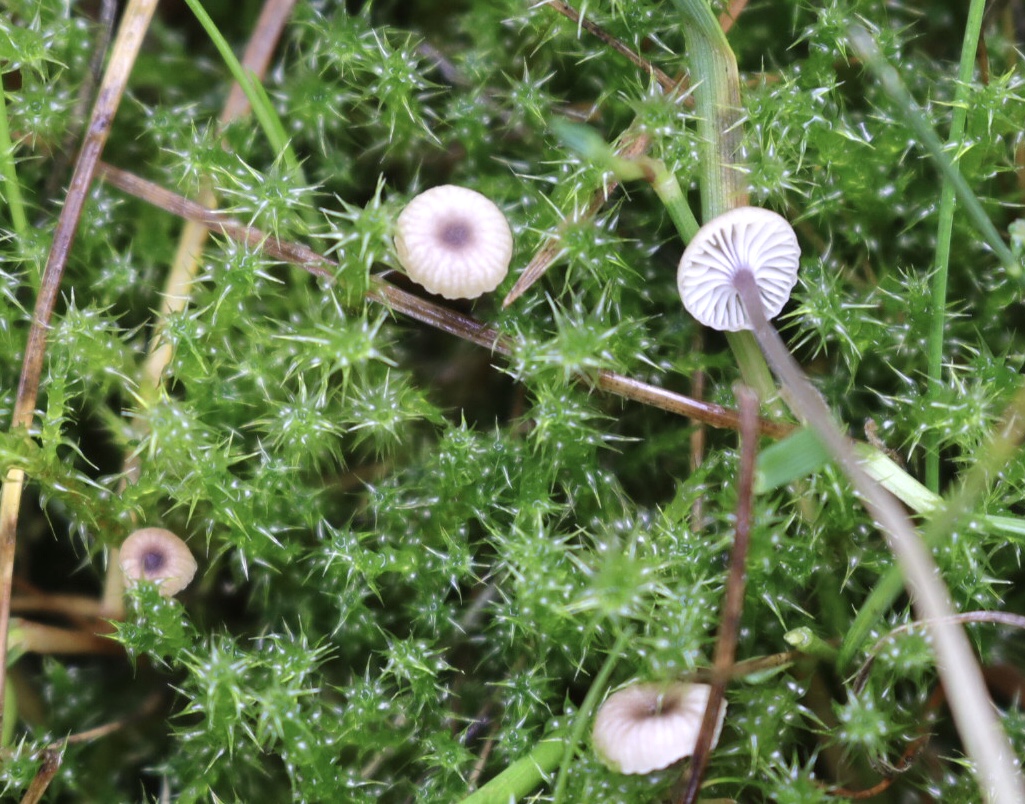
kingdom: Fungi
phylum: Basidiomycota
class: Agaricomycetes
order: Hymenochaetales
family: Rickenellaceae
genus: Rickenella
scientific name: Rickenella swartzii
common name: finstokket mosnavlehat
